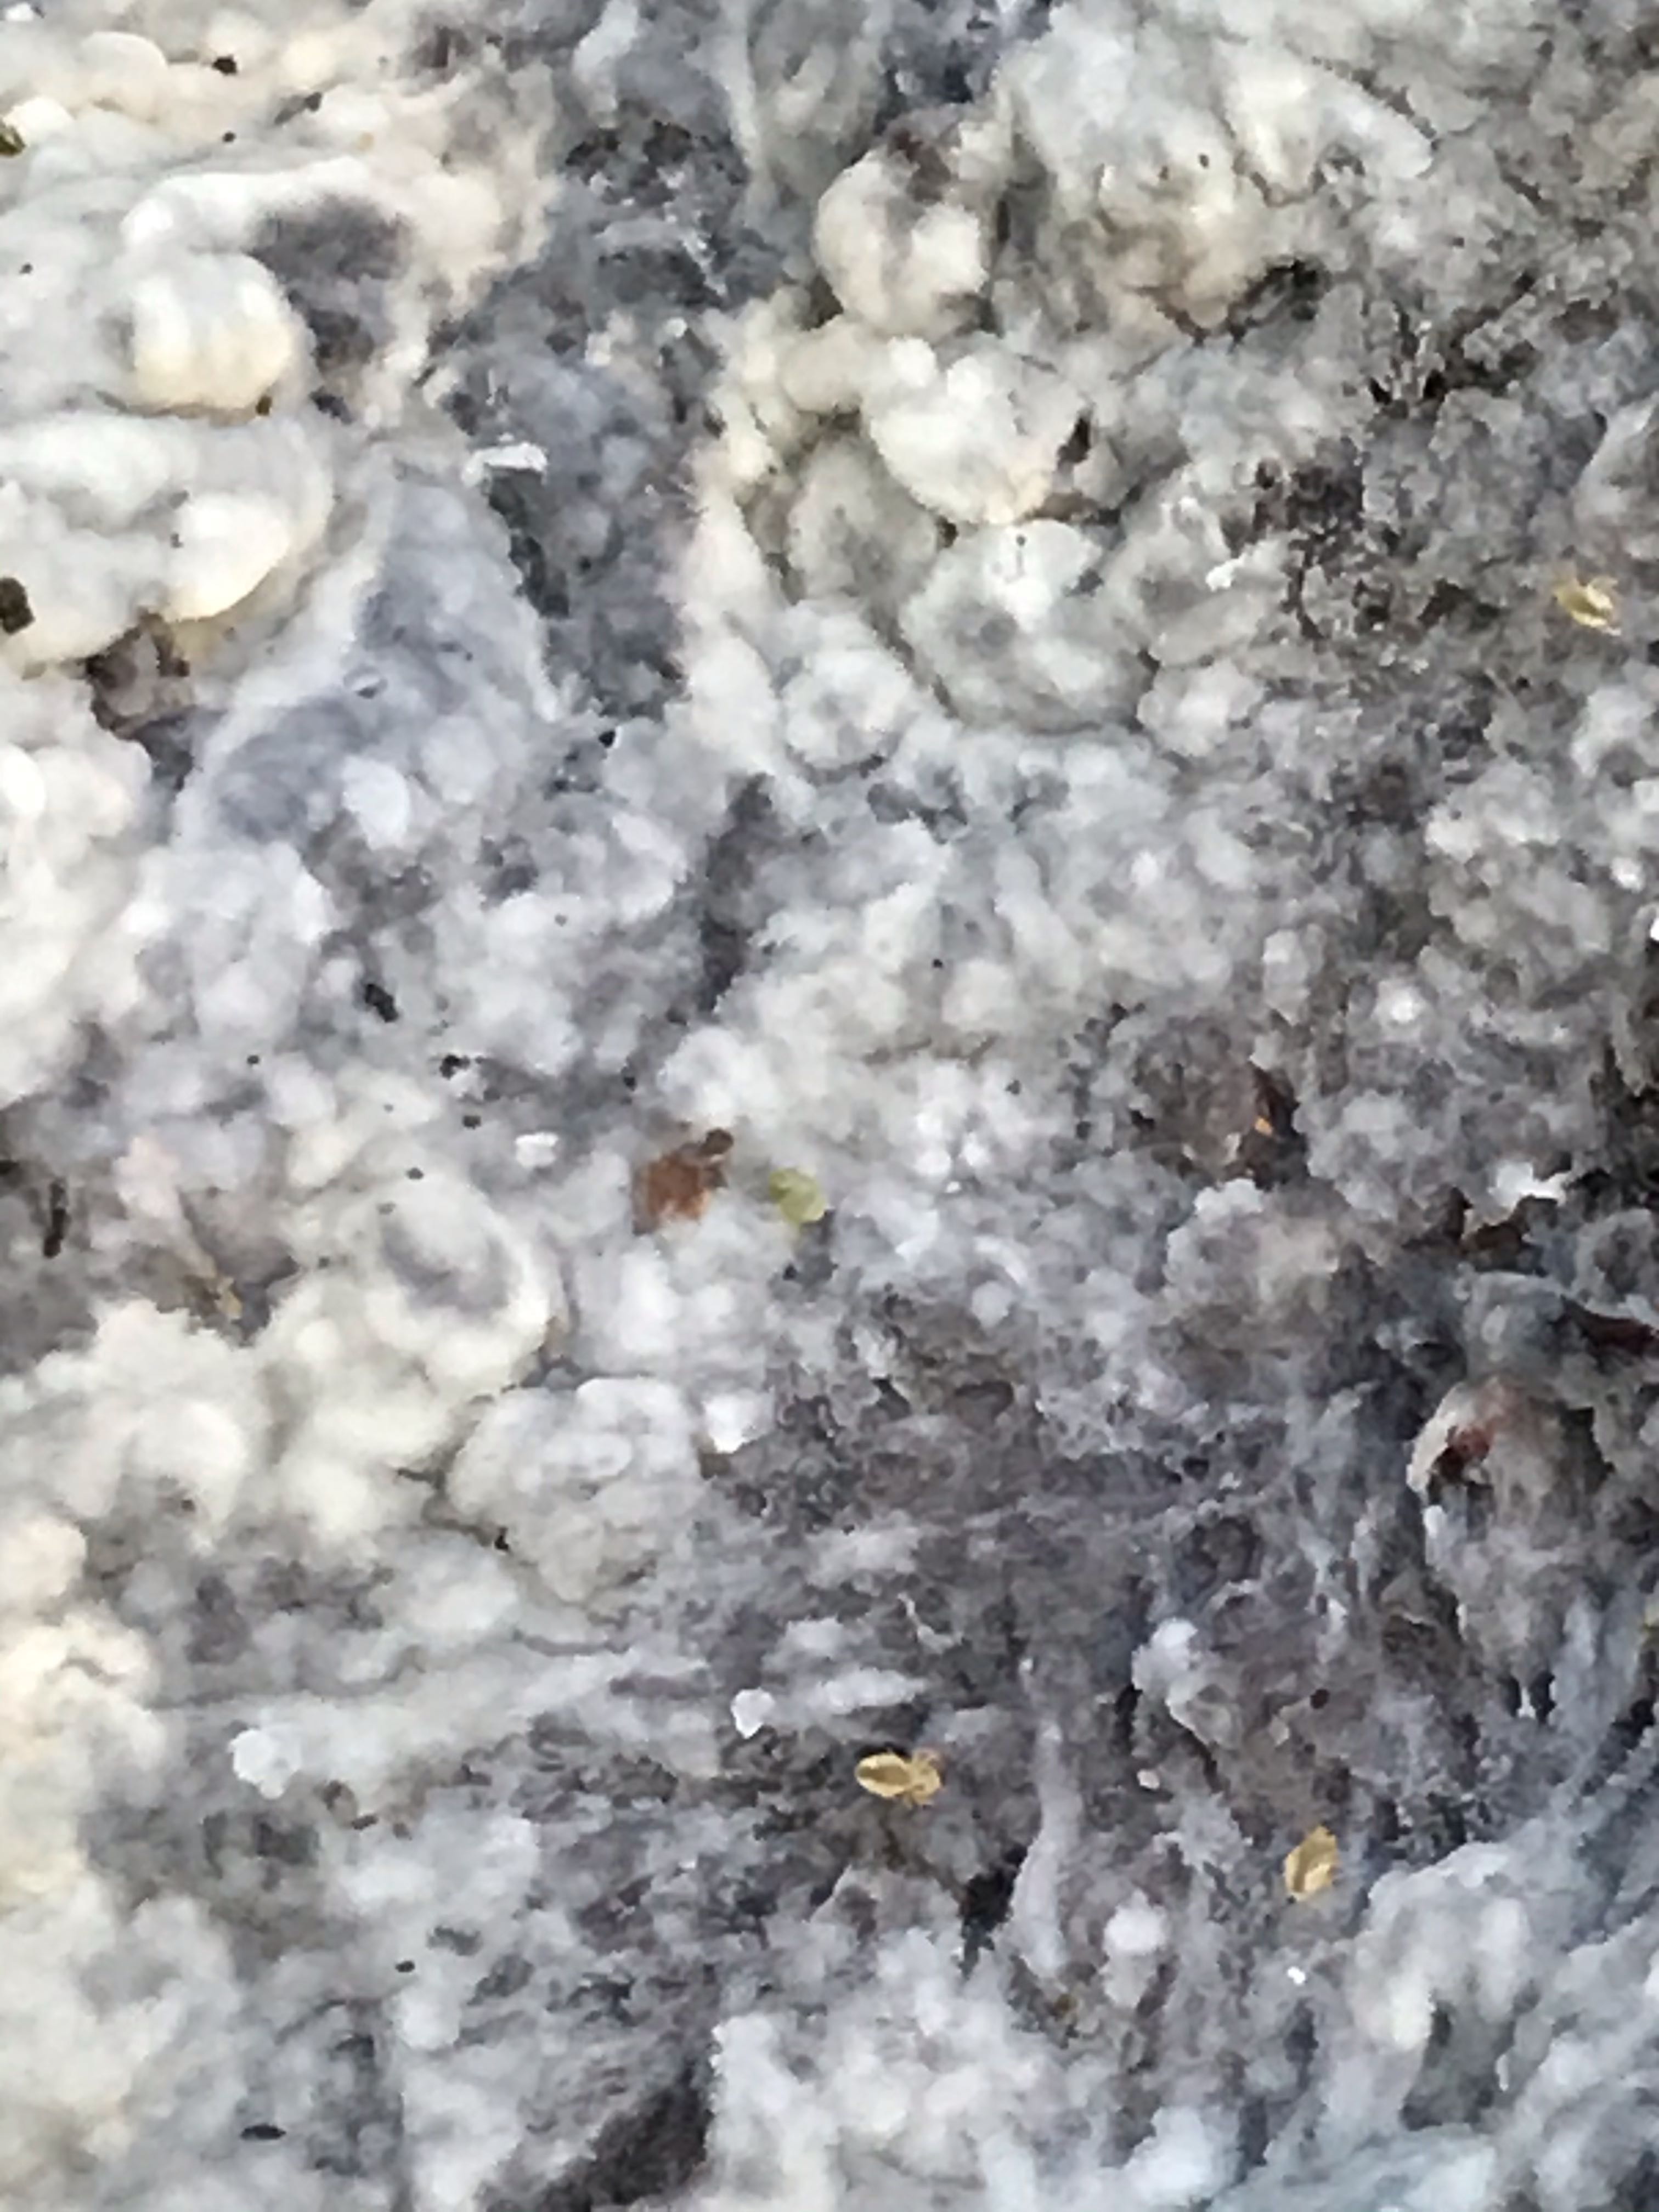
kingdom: Fungi
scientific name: Fungi
